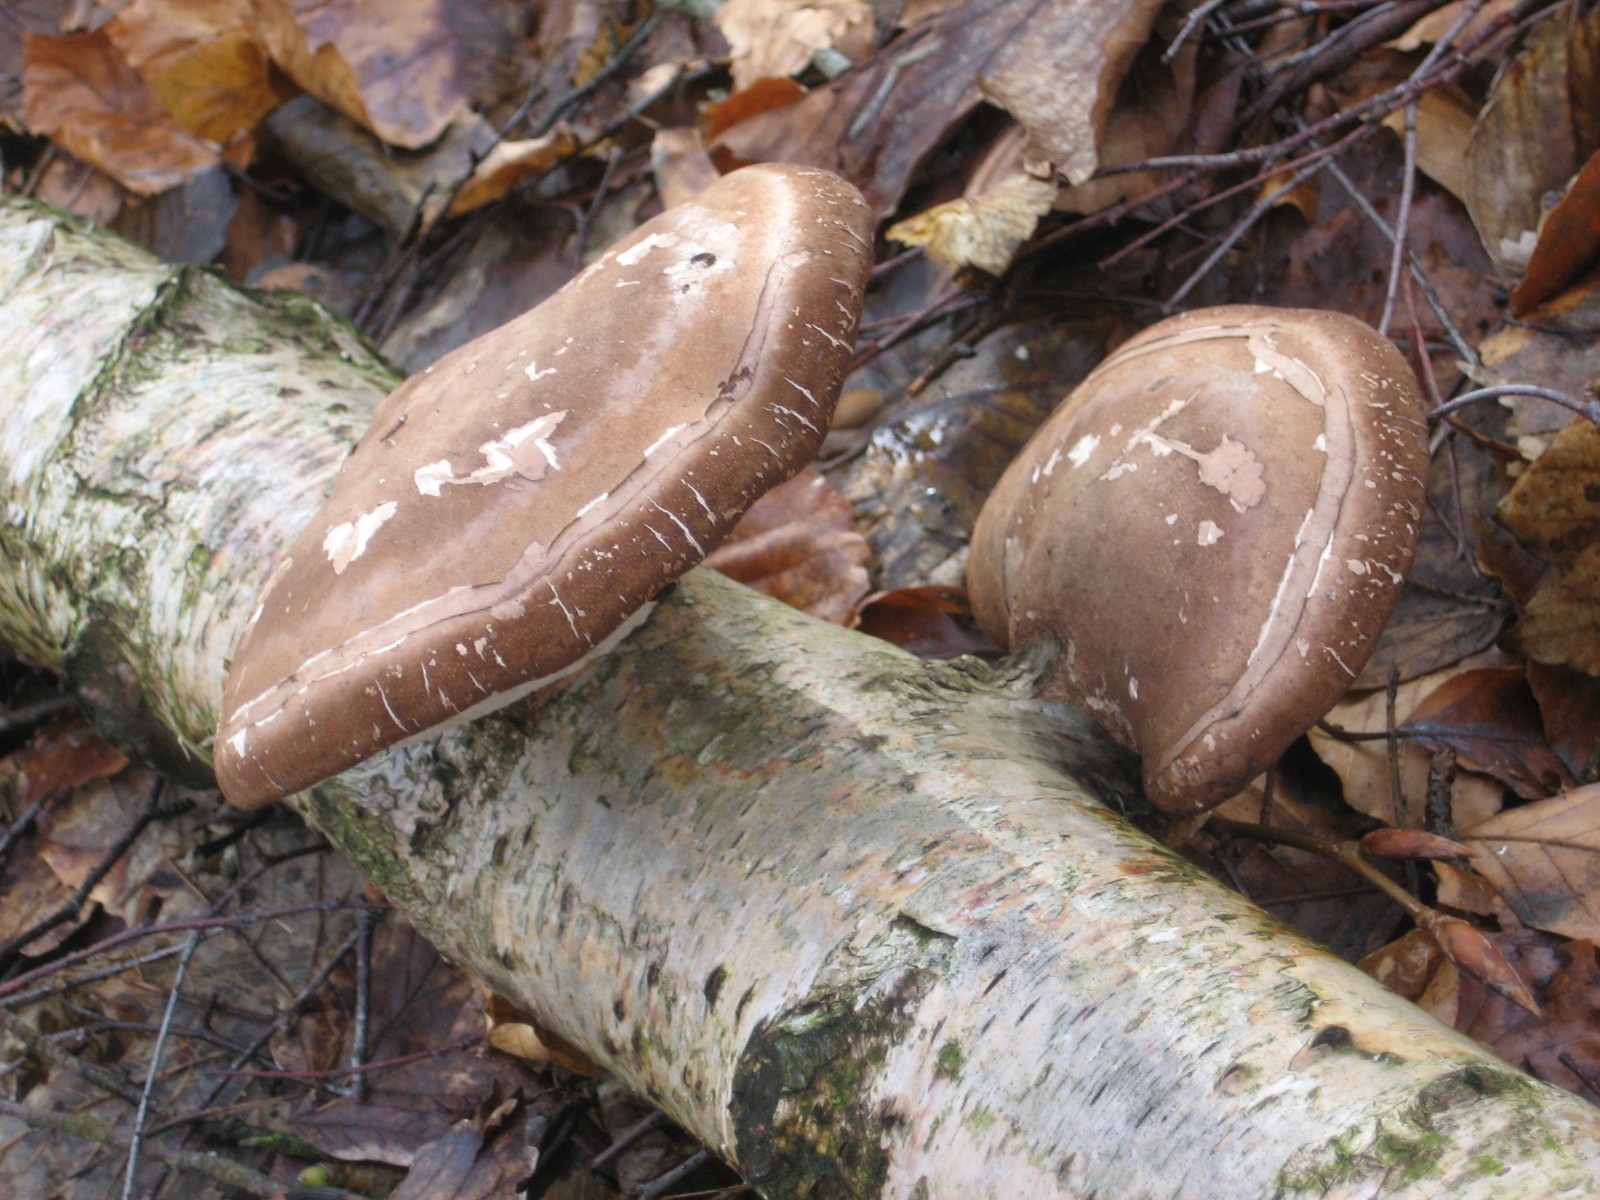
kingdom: Fungi
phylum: Basidiomycota
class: Agaricomycetes
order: Polyporales
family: Fomitopsidaceae
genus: Fomitopsis
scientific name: Fomitopsis betulina
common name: birkeporesvamp
